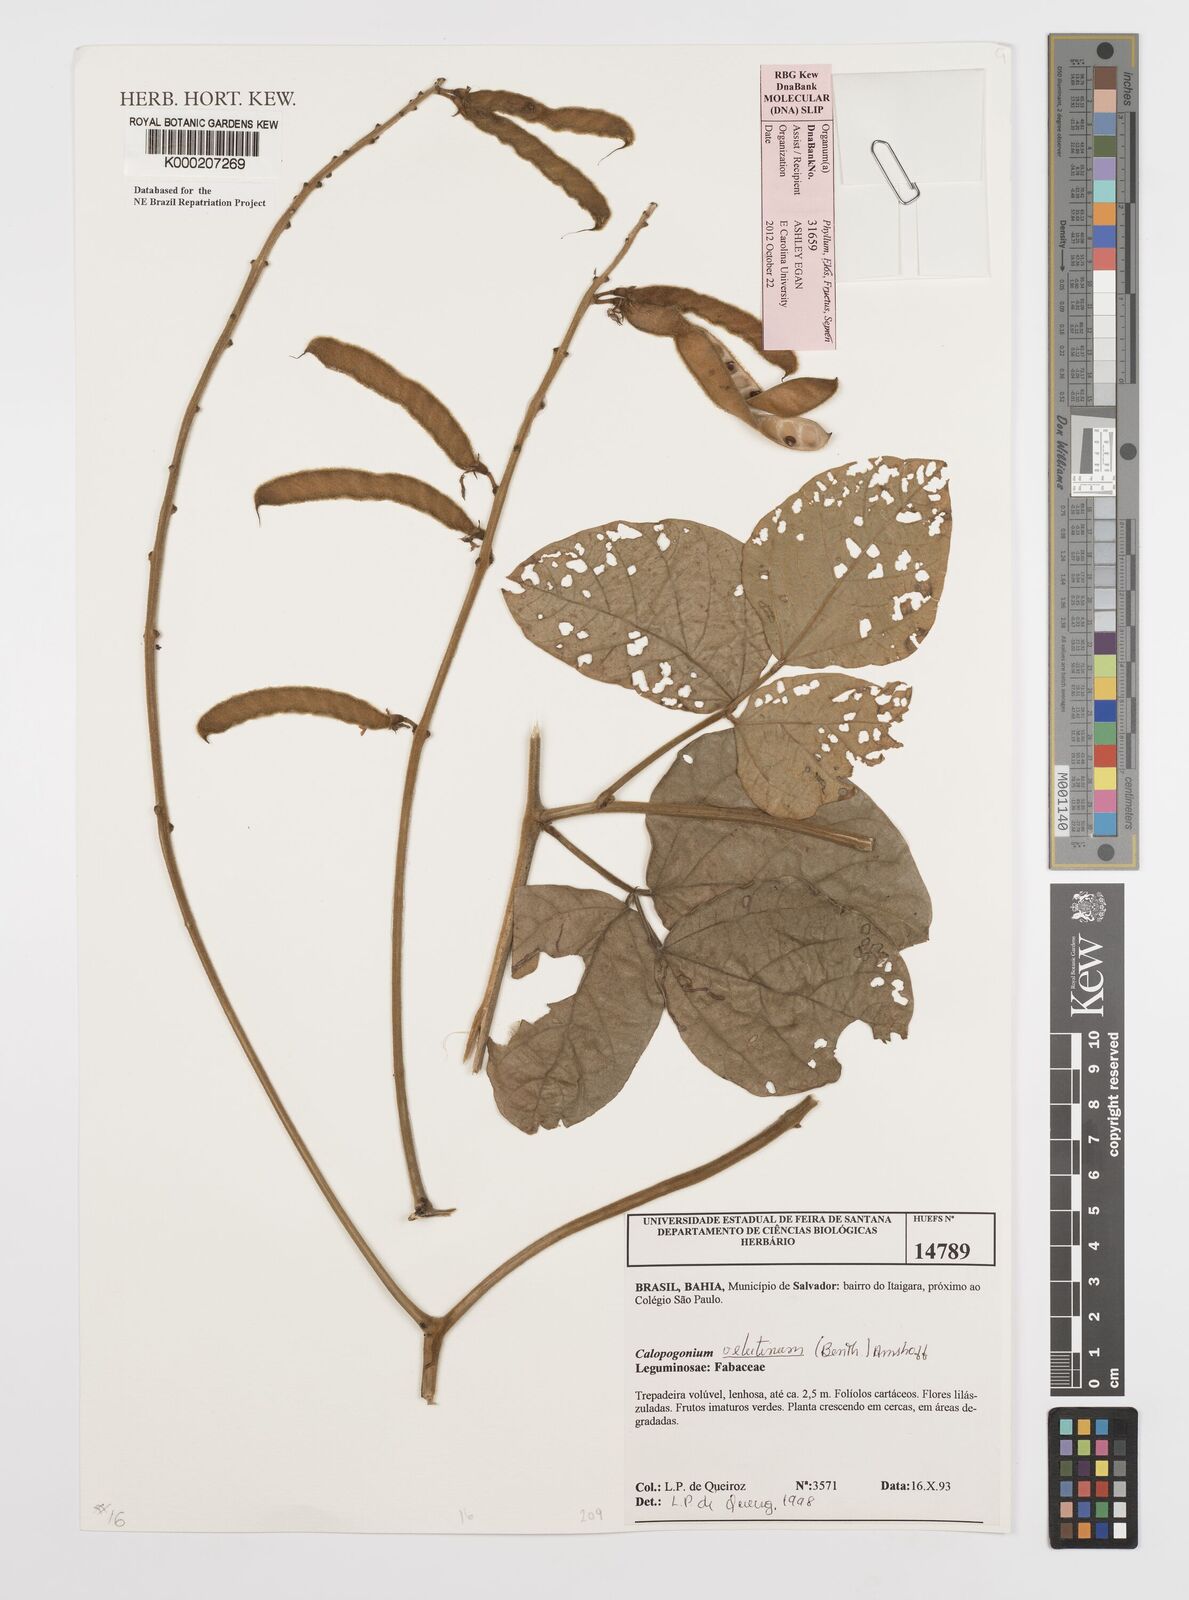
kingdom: Plantae
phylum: Tracheophyta
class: Magnoliopsida
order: Fabales
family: Fabaceae
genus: Calopogonium
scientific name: Calopogonium velutinum
